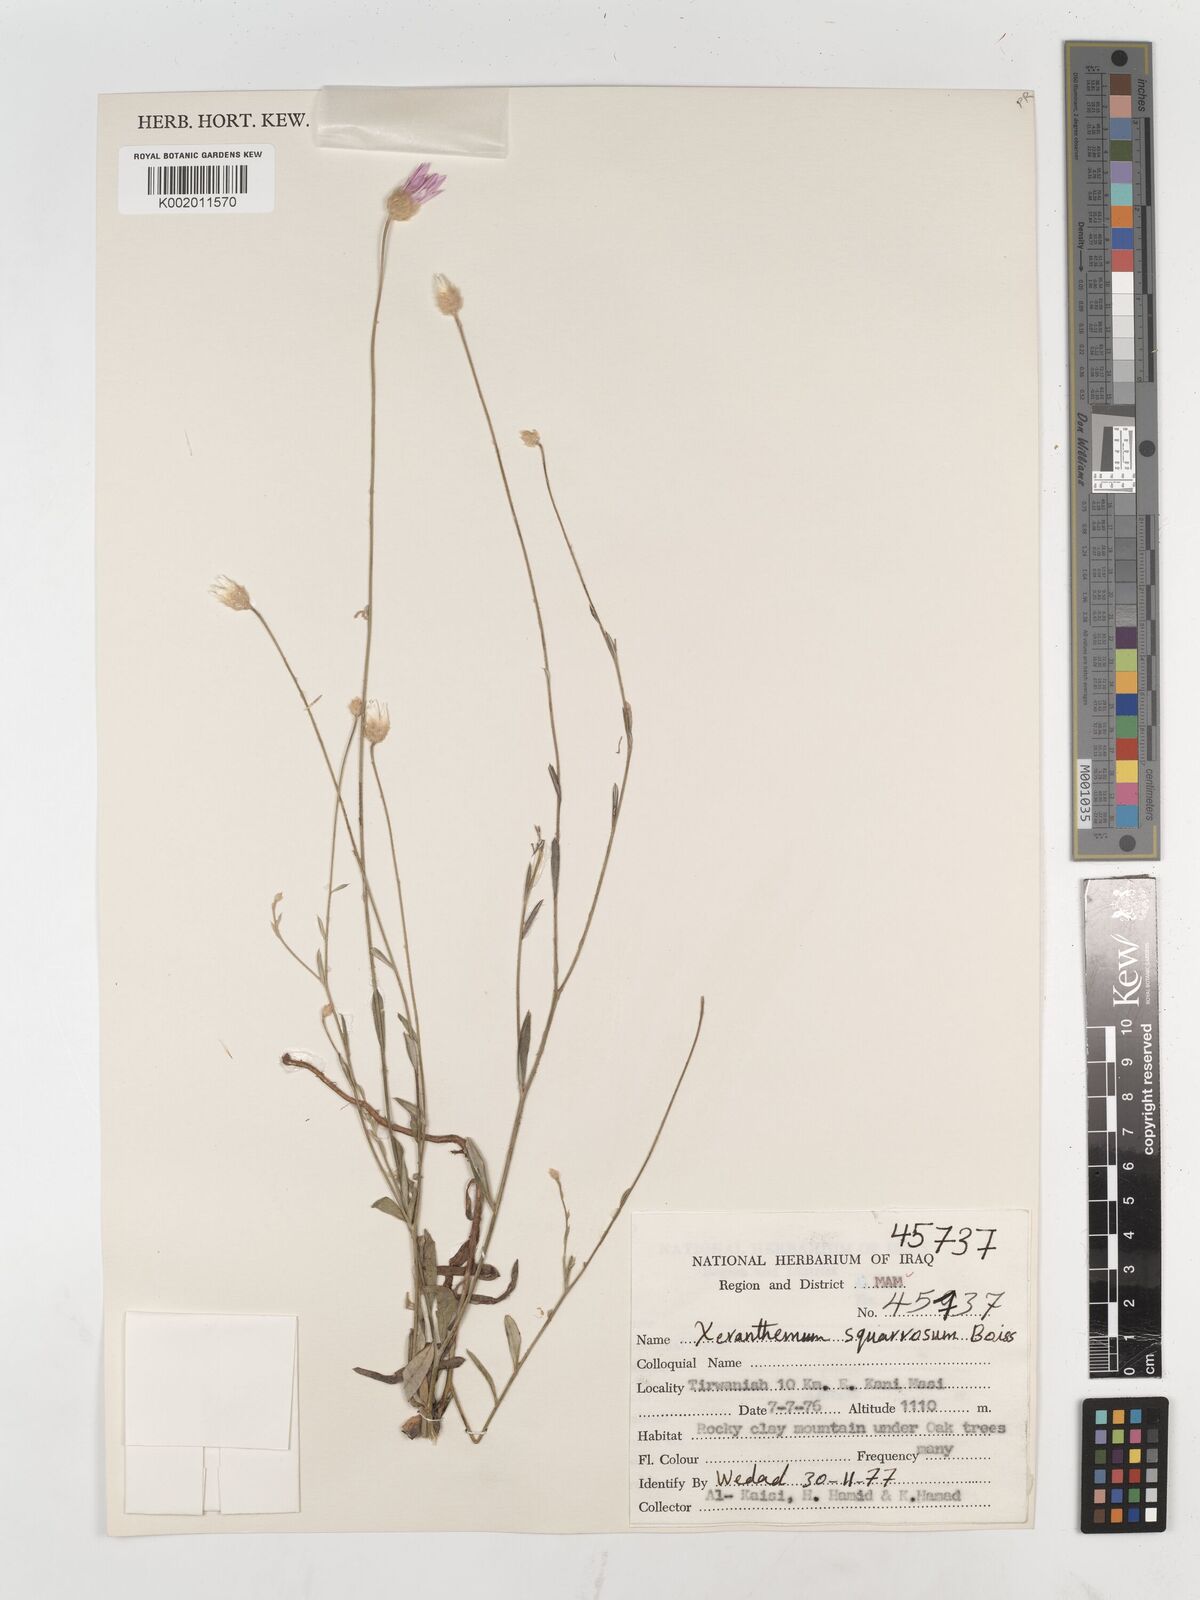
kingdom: Plantae
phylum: Tracheophyta
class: Magnoliopsida
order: Asterales
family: Asteraceae
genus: Xeranthemum
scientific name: Xeranthemum annuum
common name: Immortelle
